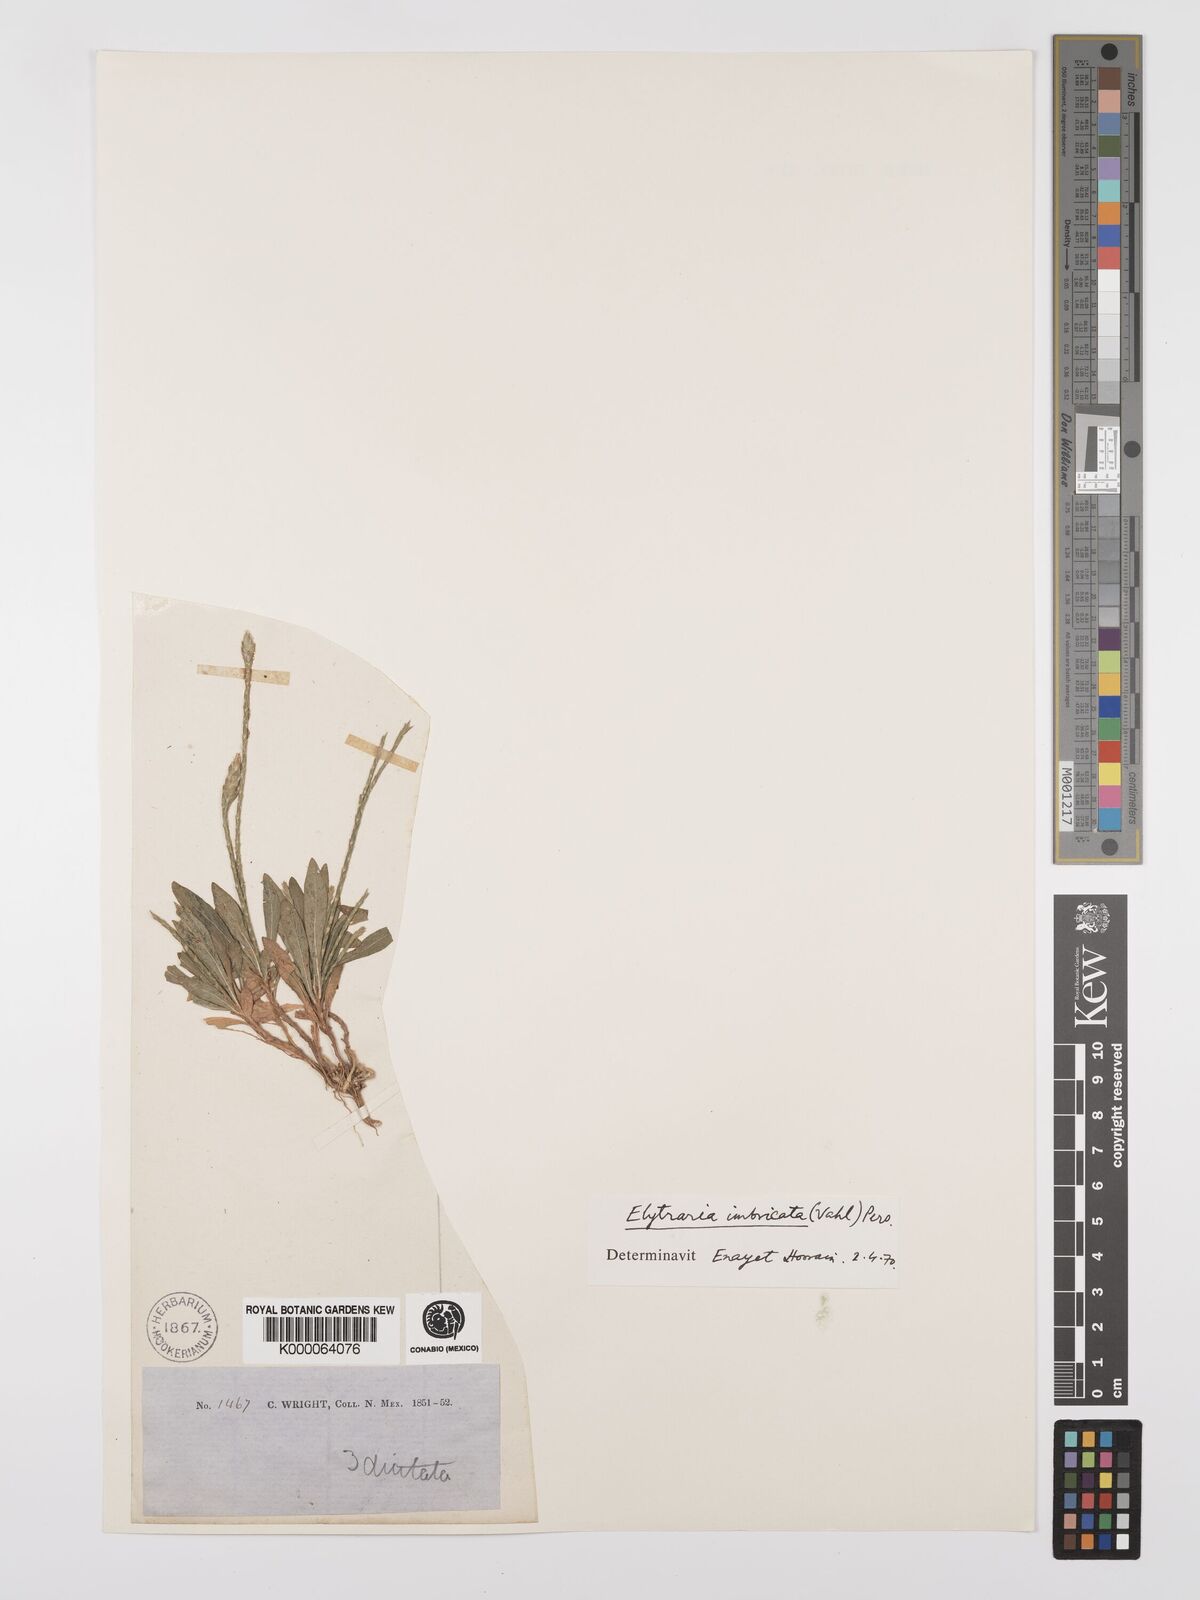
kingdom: Plantae
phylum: Tracheophyta
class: Magnoliopsida
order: Lamiales
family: Acanthaceae
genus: Elytraria
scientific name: Elytraria imbricata
